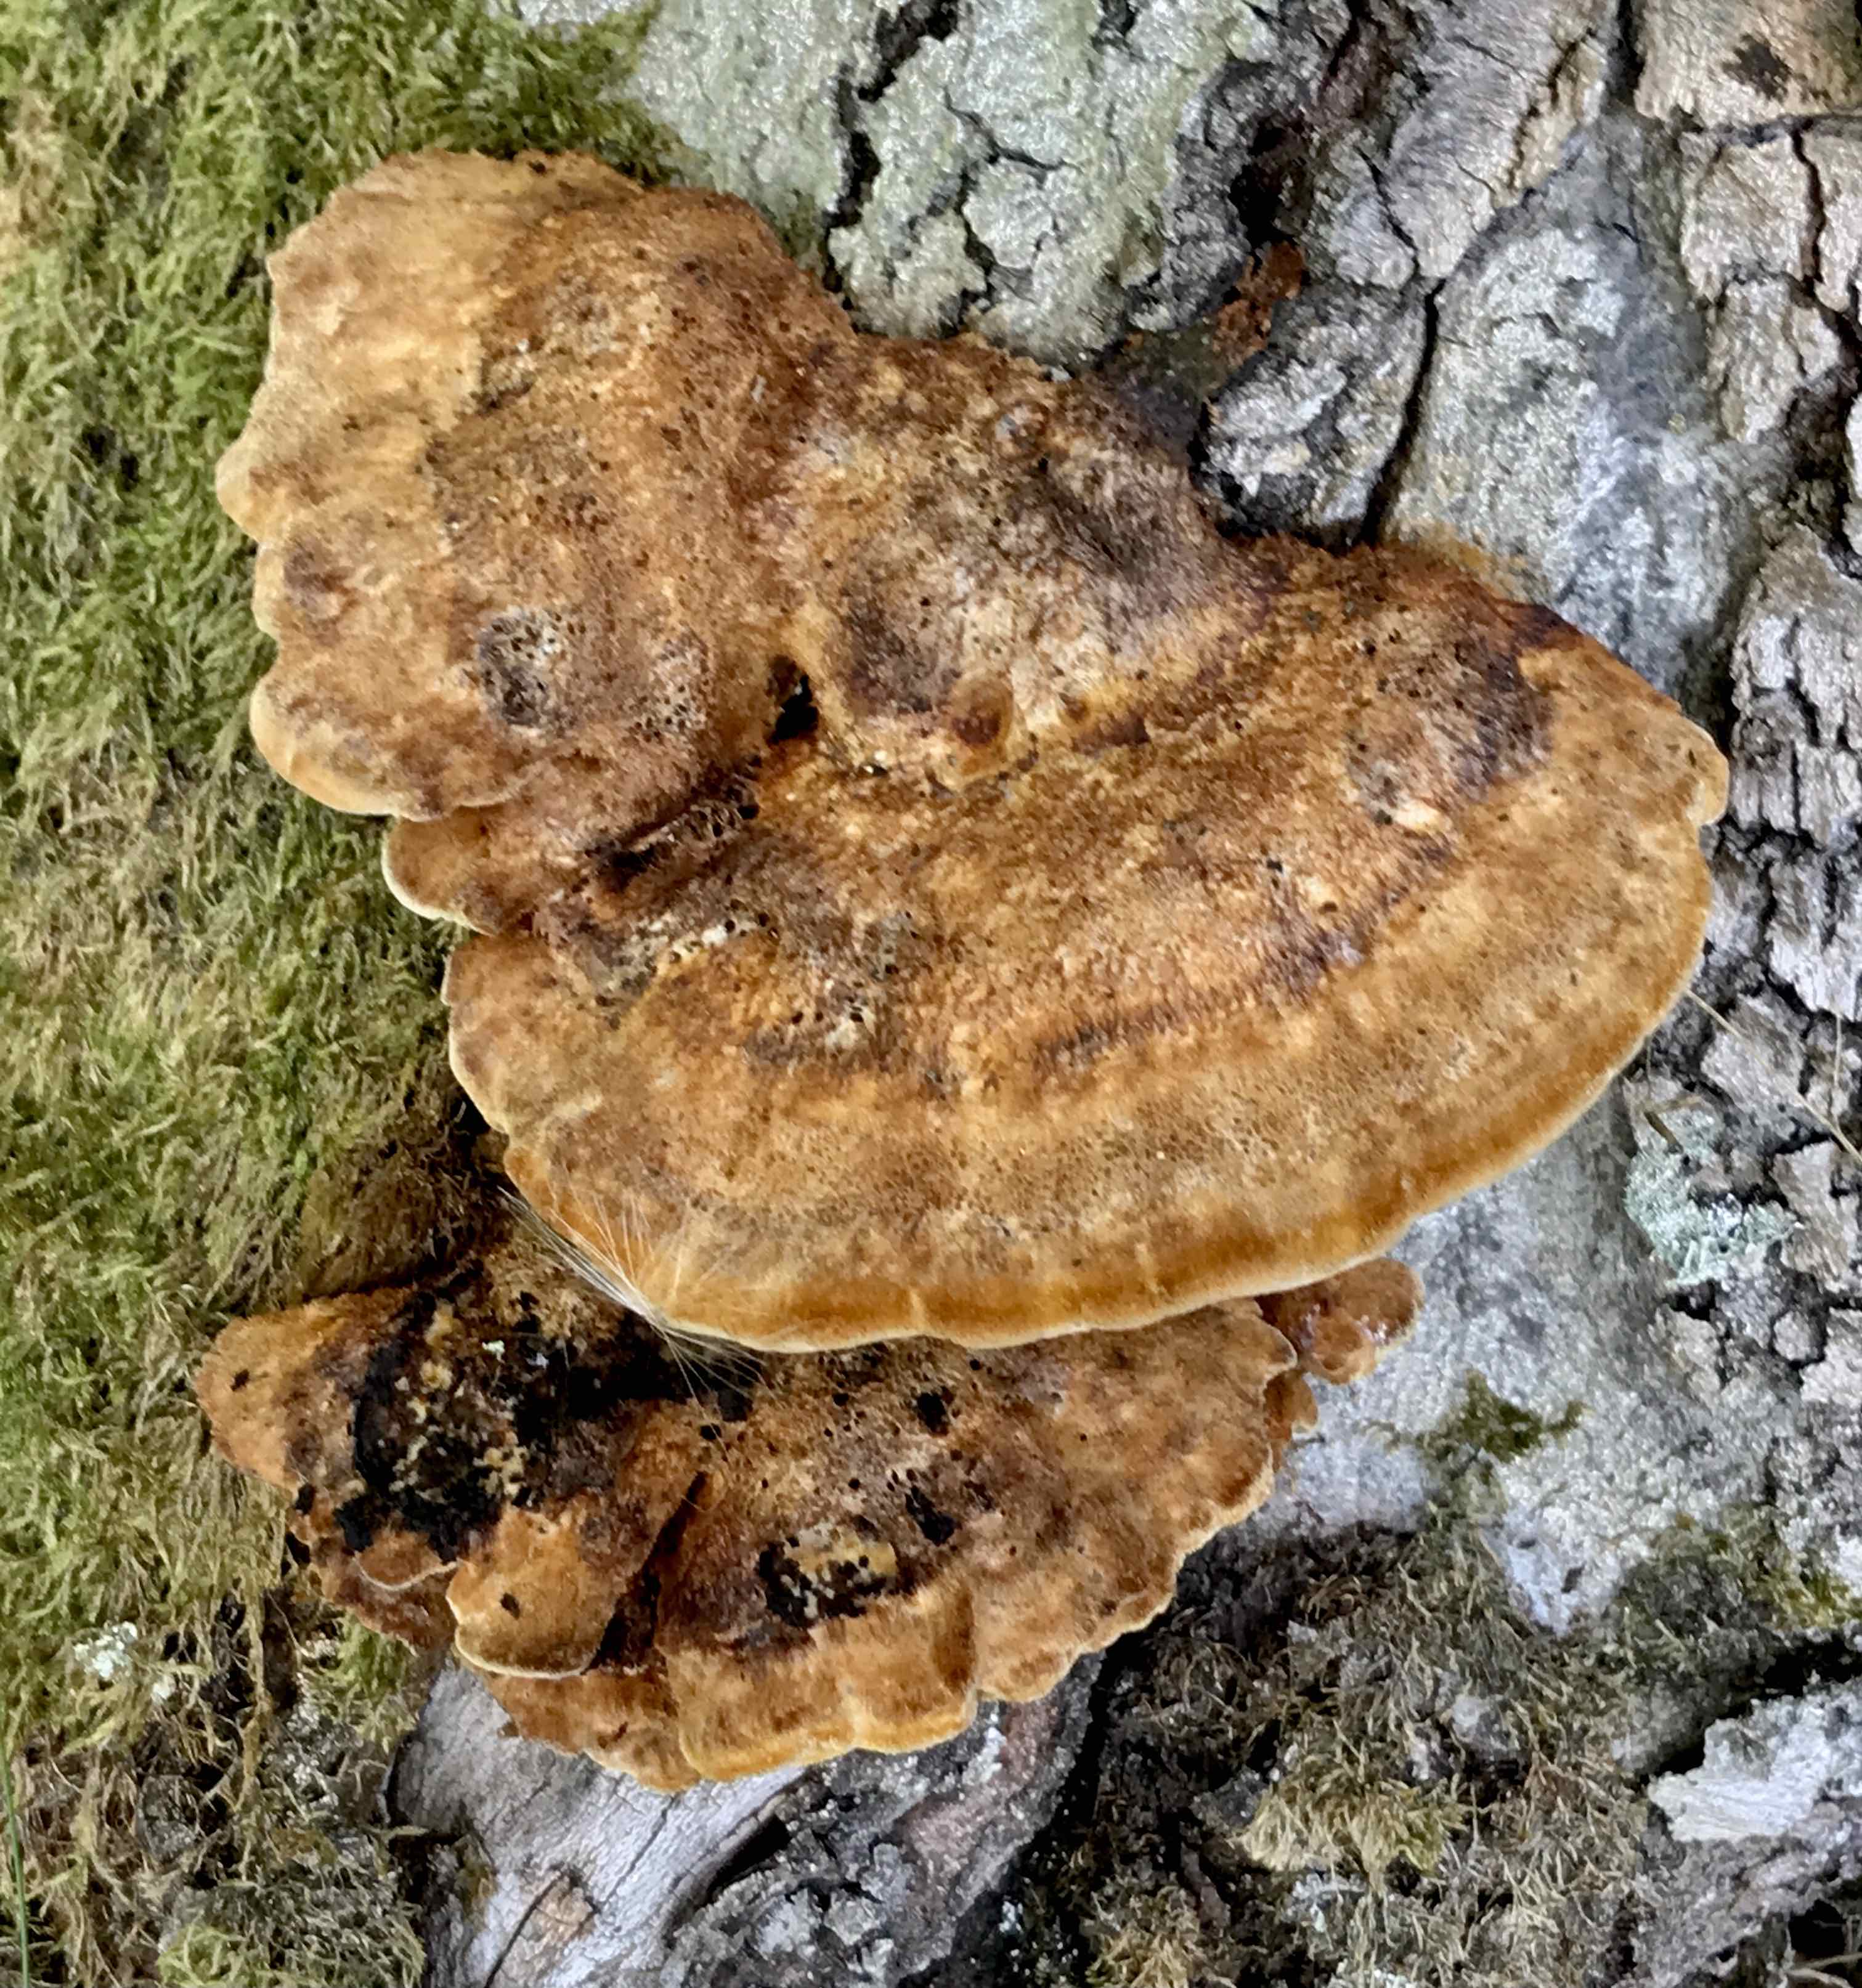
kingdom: Fungi
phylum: Basidiomycota
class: Agaricomycetes
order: Hymenochaetales
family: Hymenochaetaceae
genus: Inonotus
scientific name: Inonotus cuticularis
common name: kroghåret spejlporesvamp
